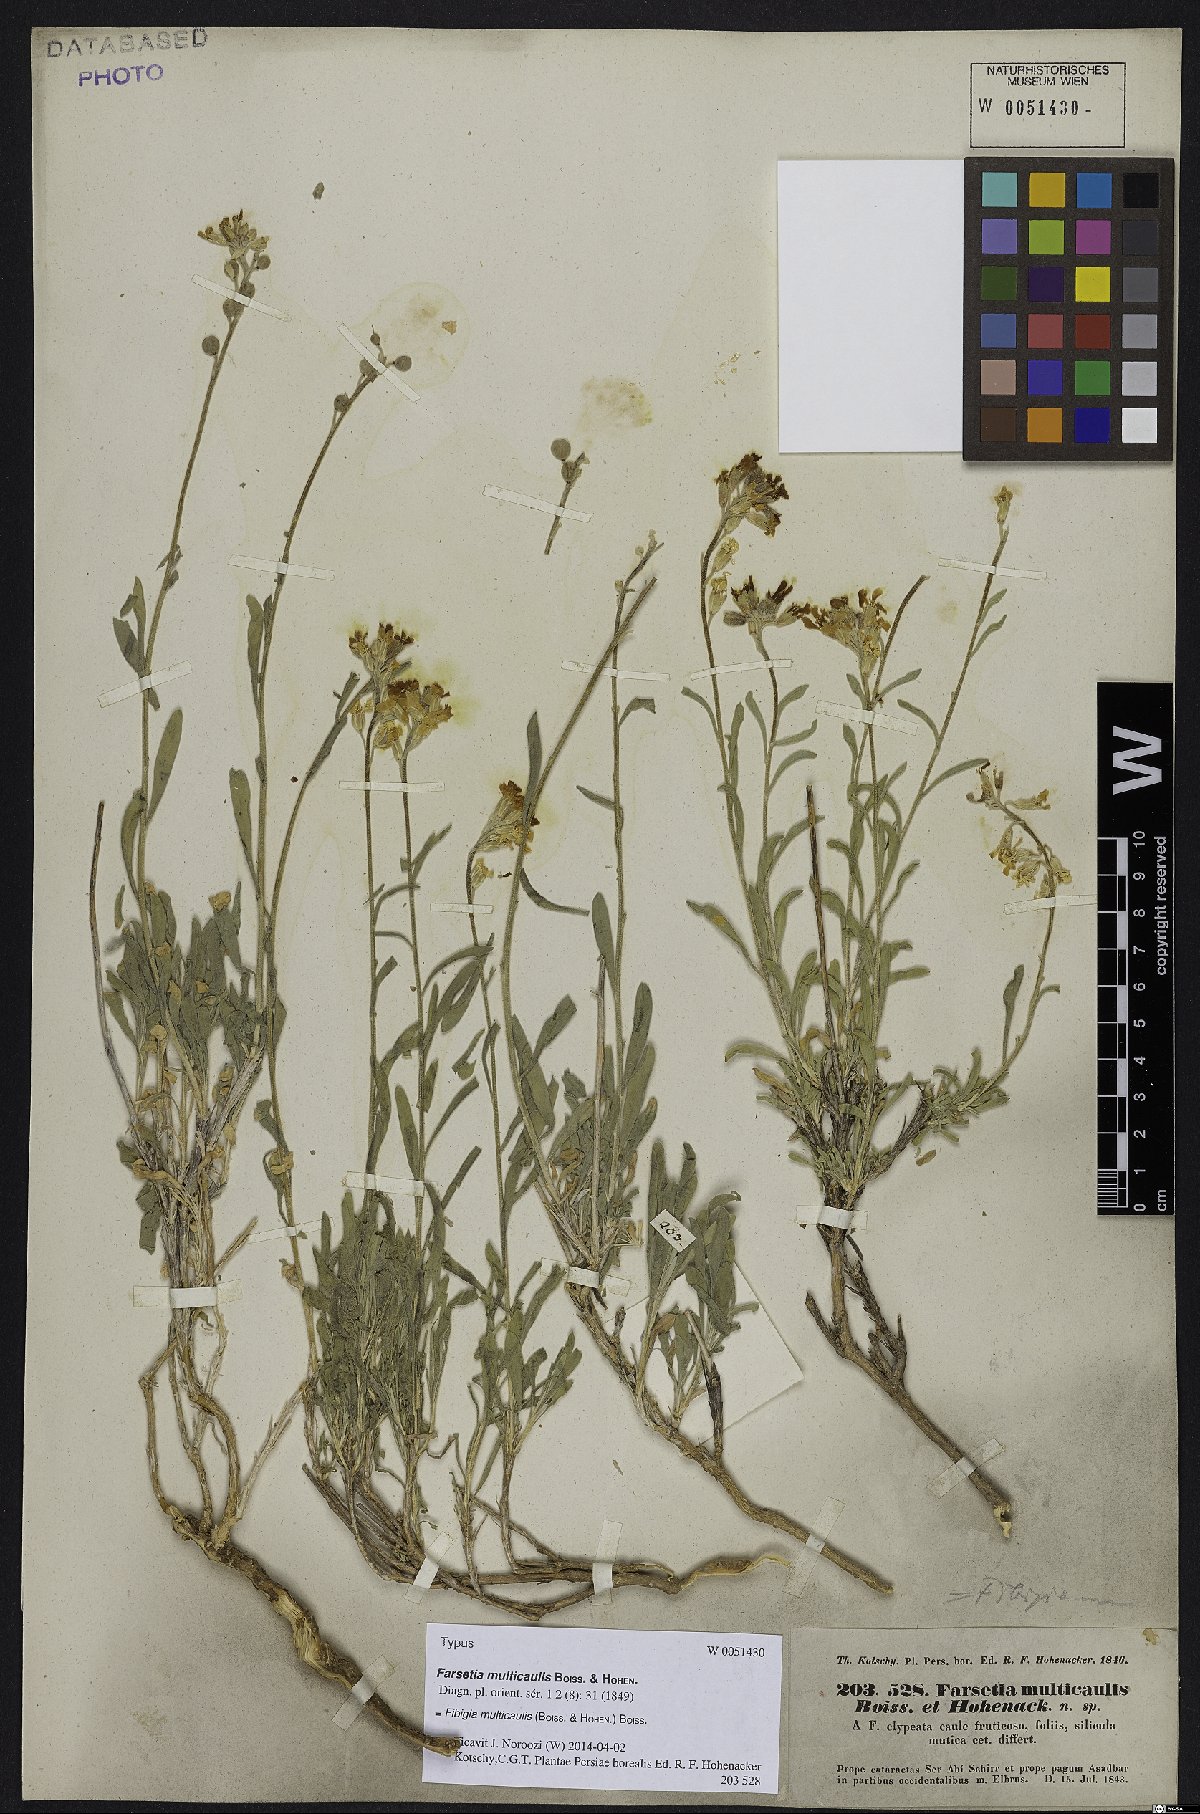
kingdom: Plantae
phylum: Tracheophyta
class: Magnoliopsida
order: Brassicales
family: Brassicaceae
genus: Irania
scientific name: Irania multicaulis
